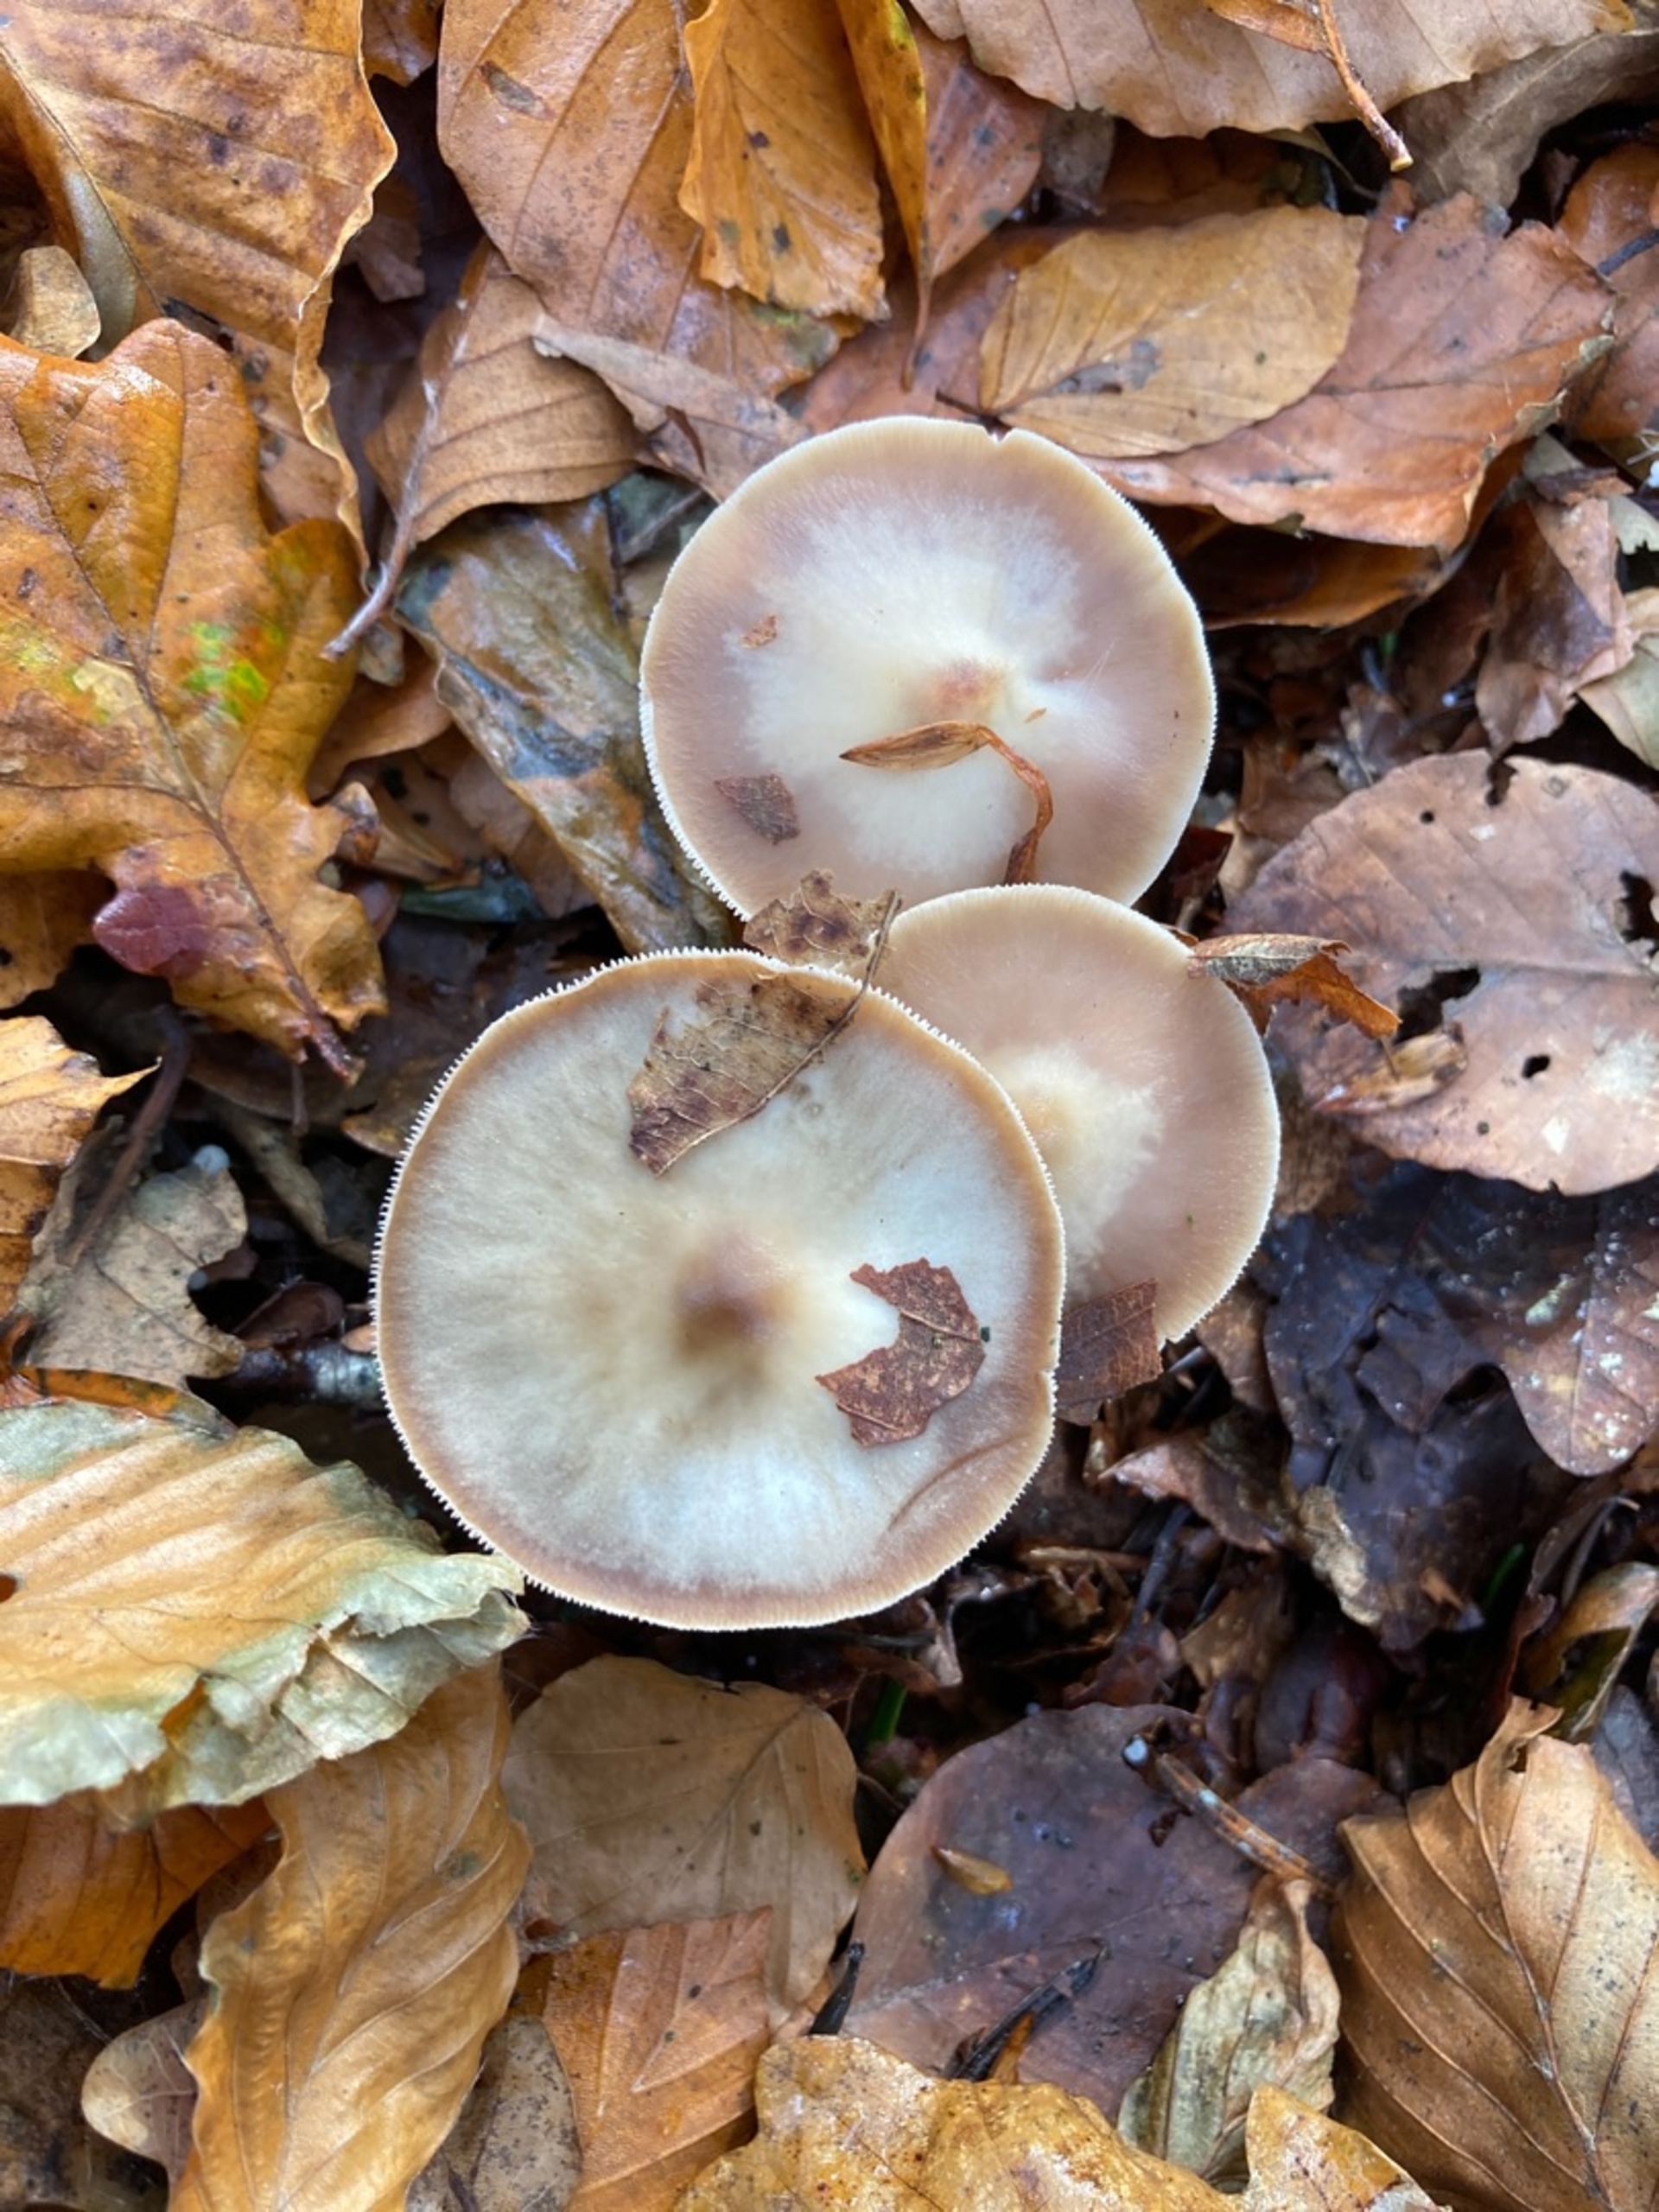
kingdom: Fungi
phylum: Basidiomycota
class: Agaricomycetes
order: Agaricales
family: Omphalotaceae
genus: Rhodocollybia
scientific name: Rhodocollybia asema
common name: Horngrå fladhat
